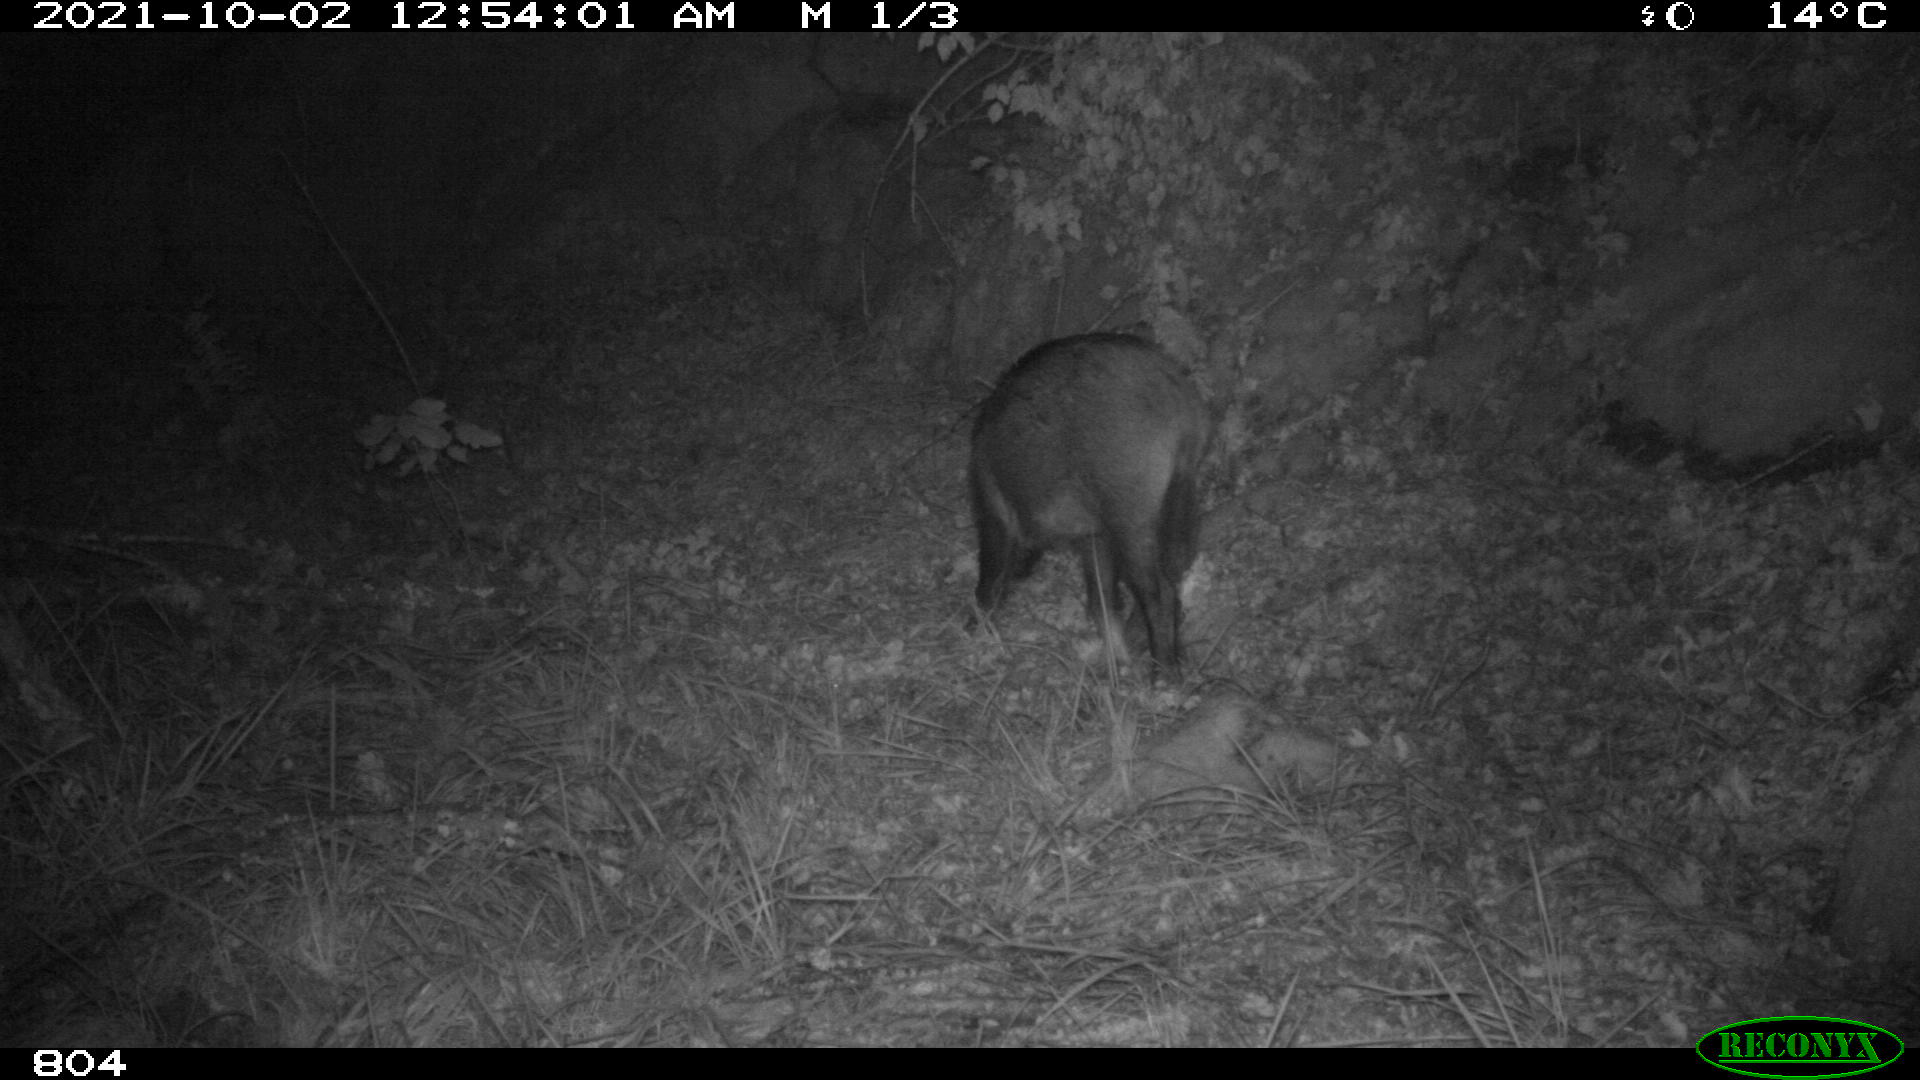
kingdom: Animalia
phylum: Chordata
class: Mammalia
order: Artiodactyla
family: Suidae
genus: Sus
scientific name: Sus scrofa
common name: Wild boar
